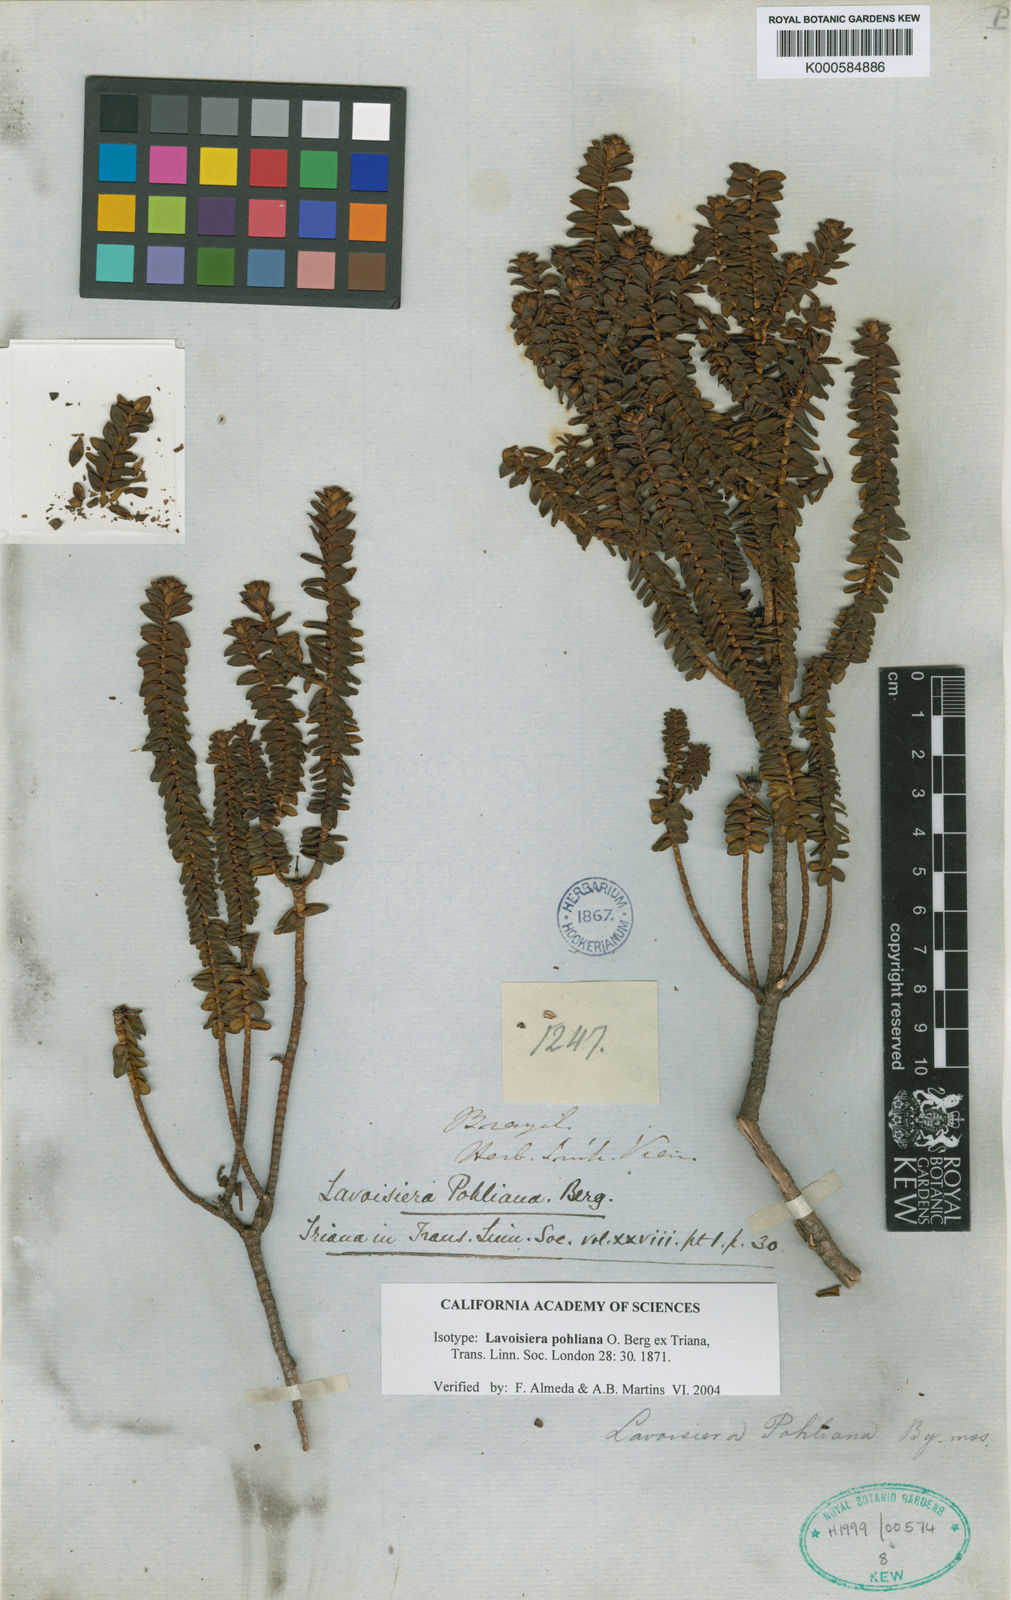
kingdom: Plantae
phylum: Tracheophyta
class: Magnoliopsida
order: Myrtales
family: Melastomataceae
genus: Microlicia
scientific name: Microlicia
